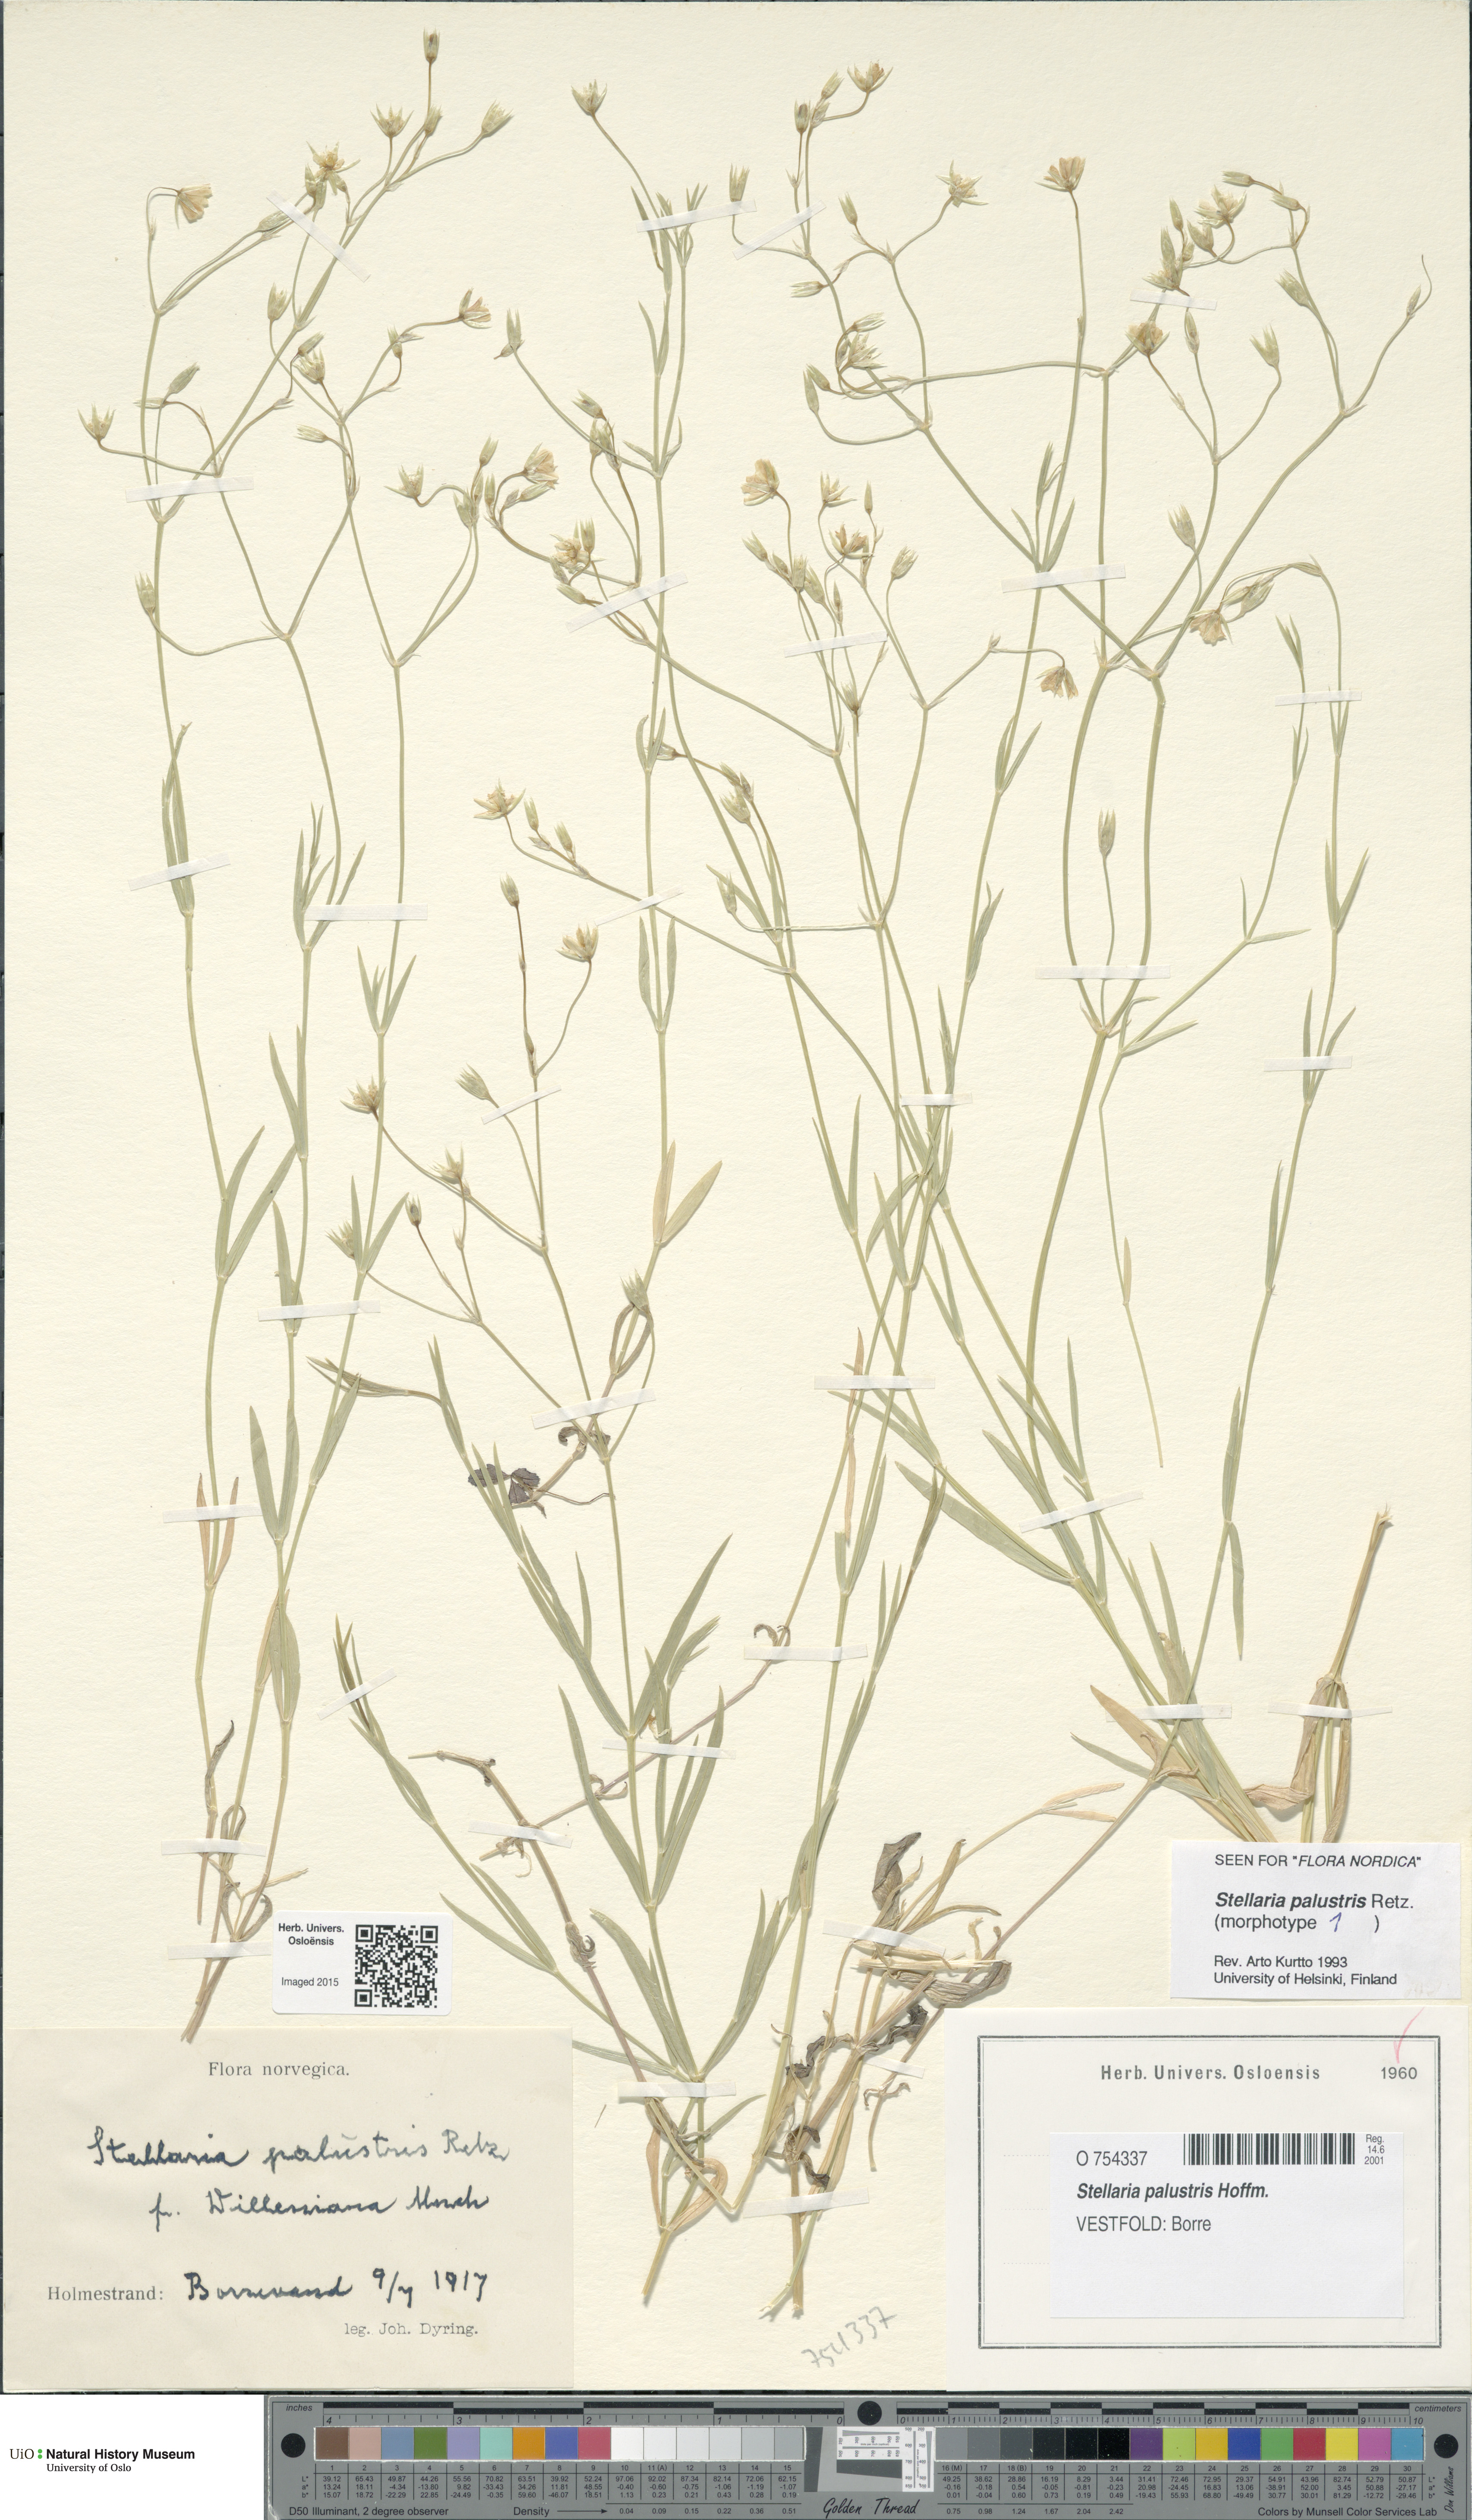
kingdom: Plantae
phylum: Tracheophyta
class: Magnoliopsida
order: Caryophyllales
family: Caryophyllaceae
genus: Stellaria
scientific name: Stellaria palustris
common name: Marsh stitchwort
